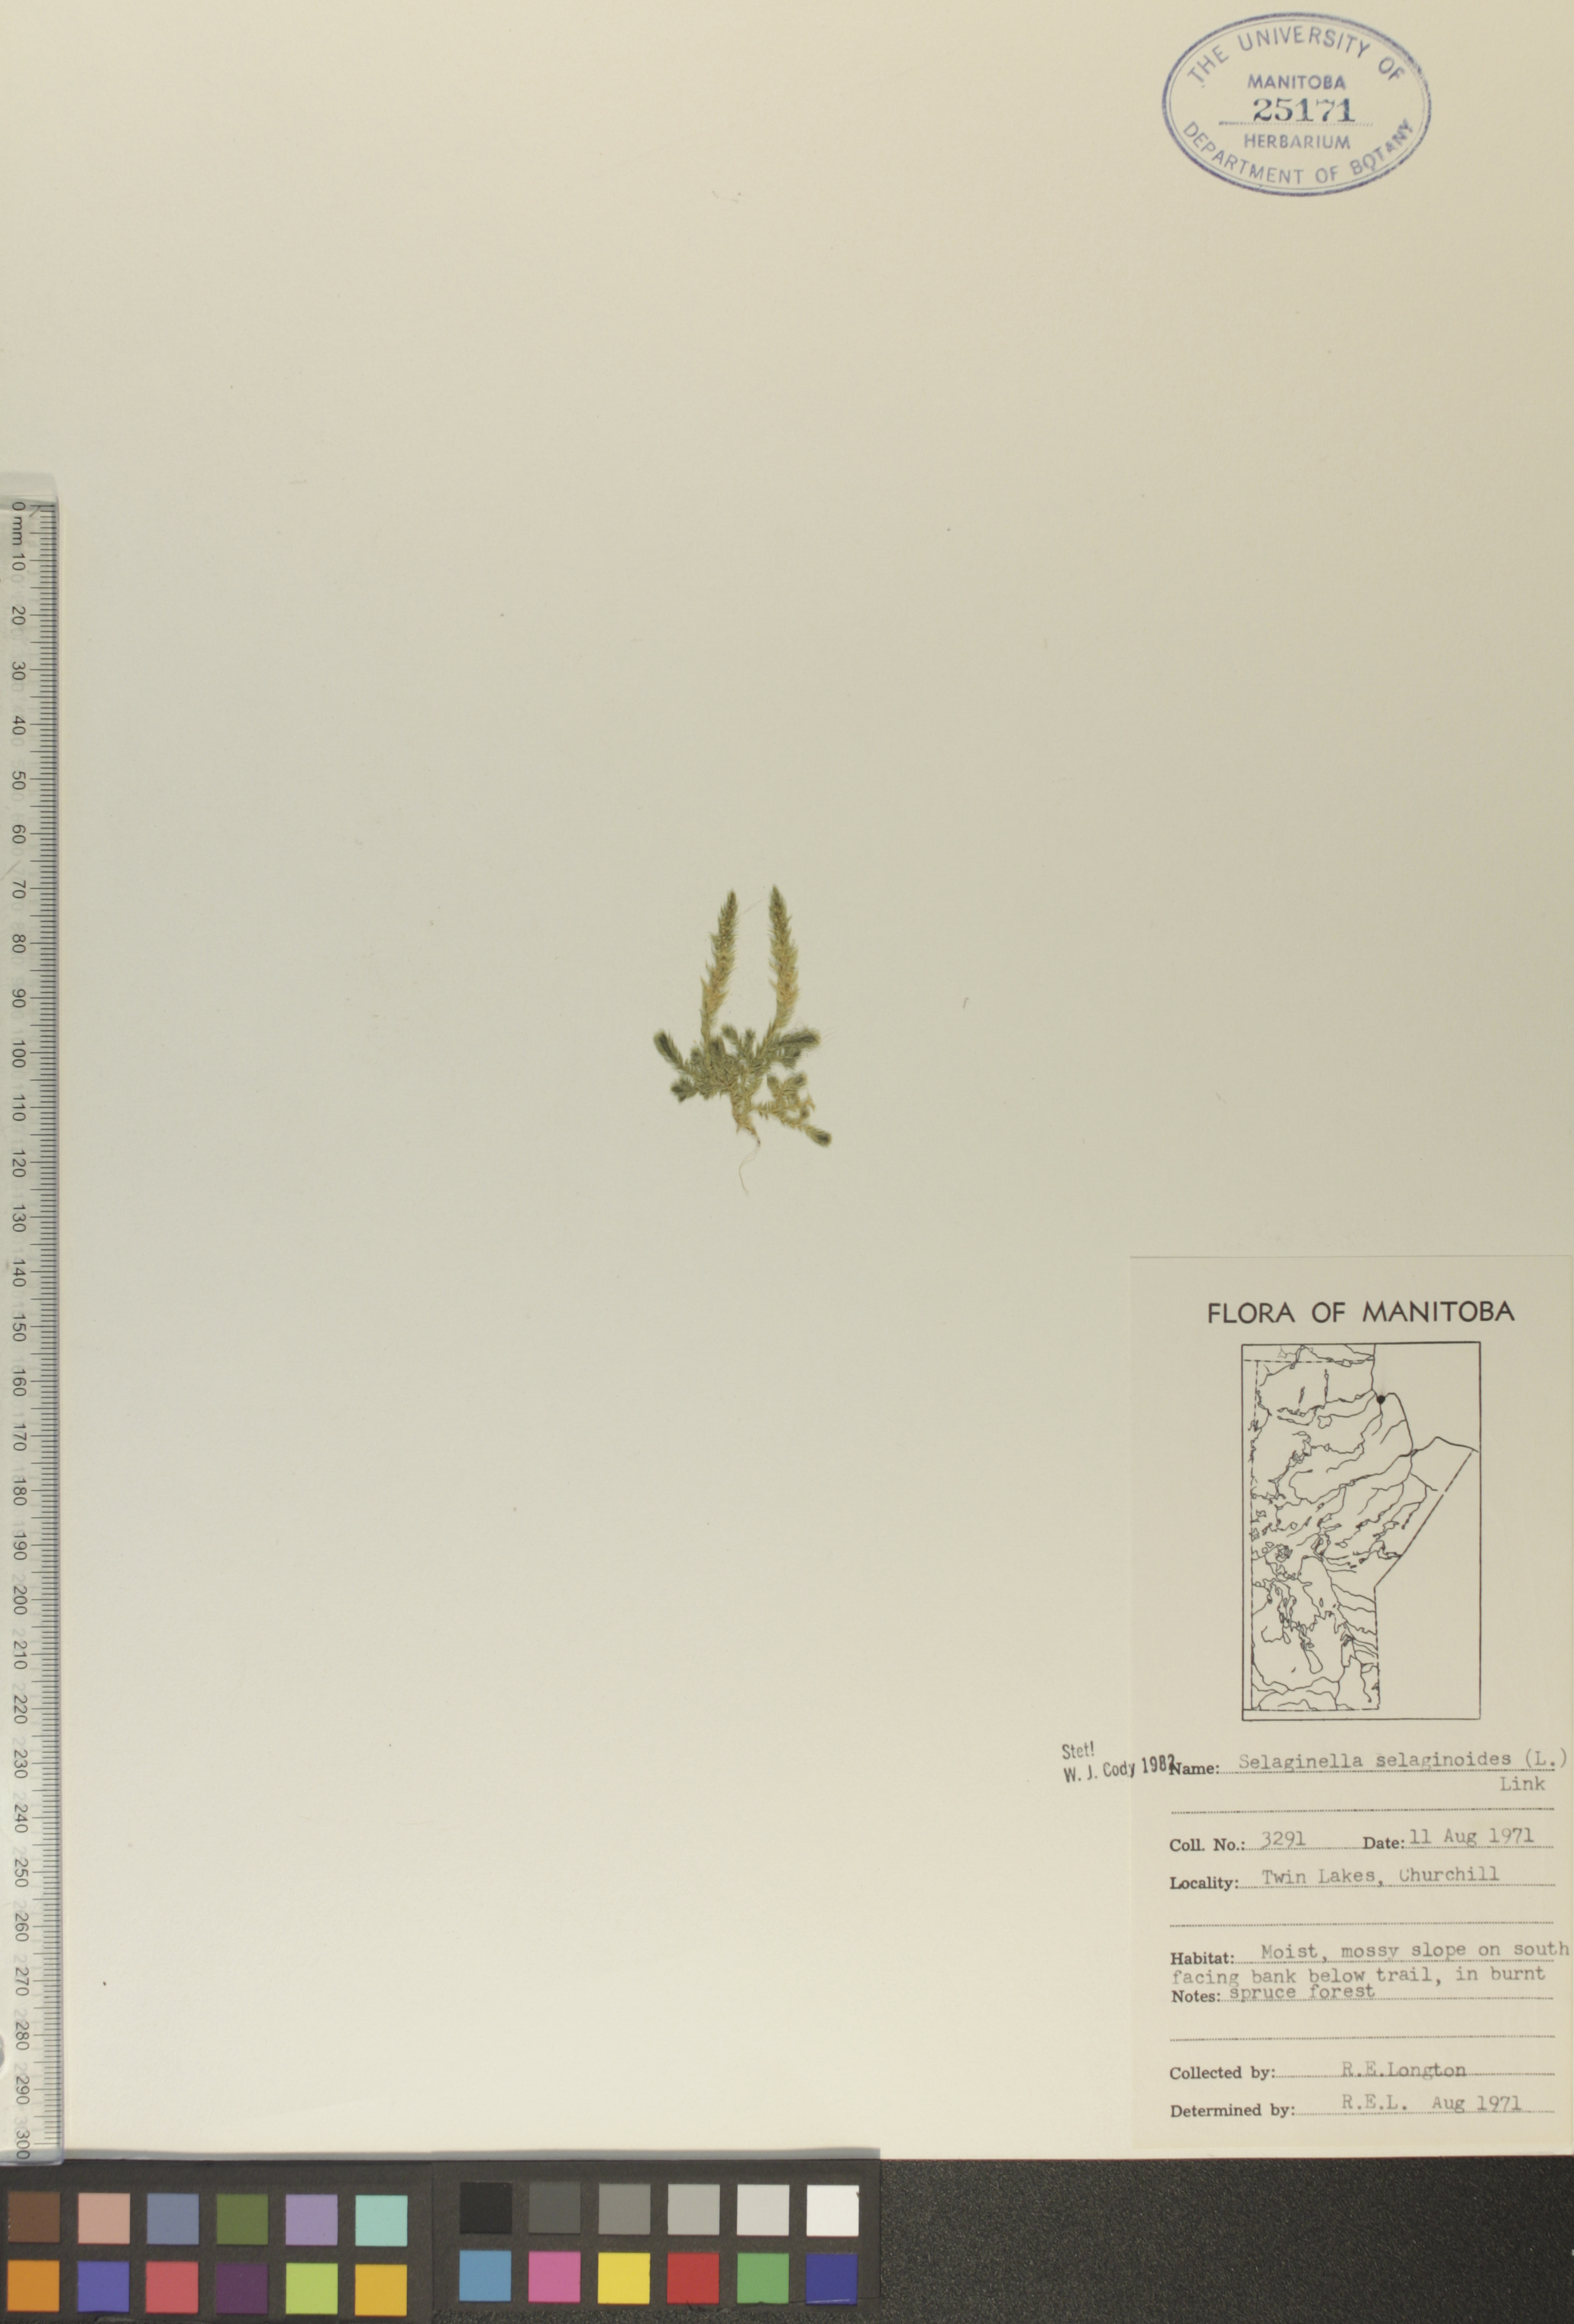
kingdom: Plantae
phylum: Tracheophyta
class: Lycopodiopsida
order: Selaginellales
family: Selaginellaceae
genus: Selaginella
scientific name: Selaginella selaginoides
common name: Prickly mountain-moss
